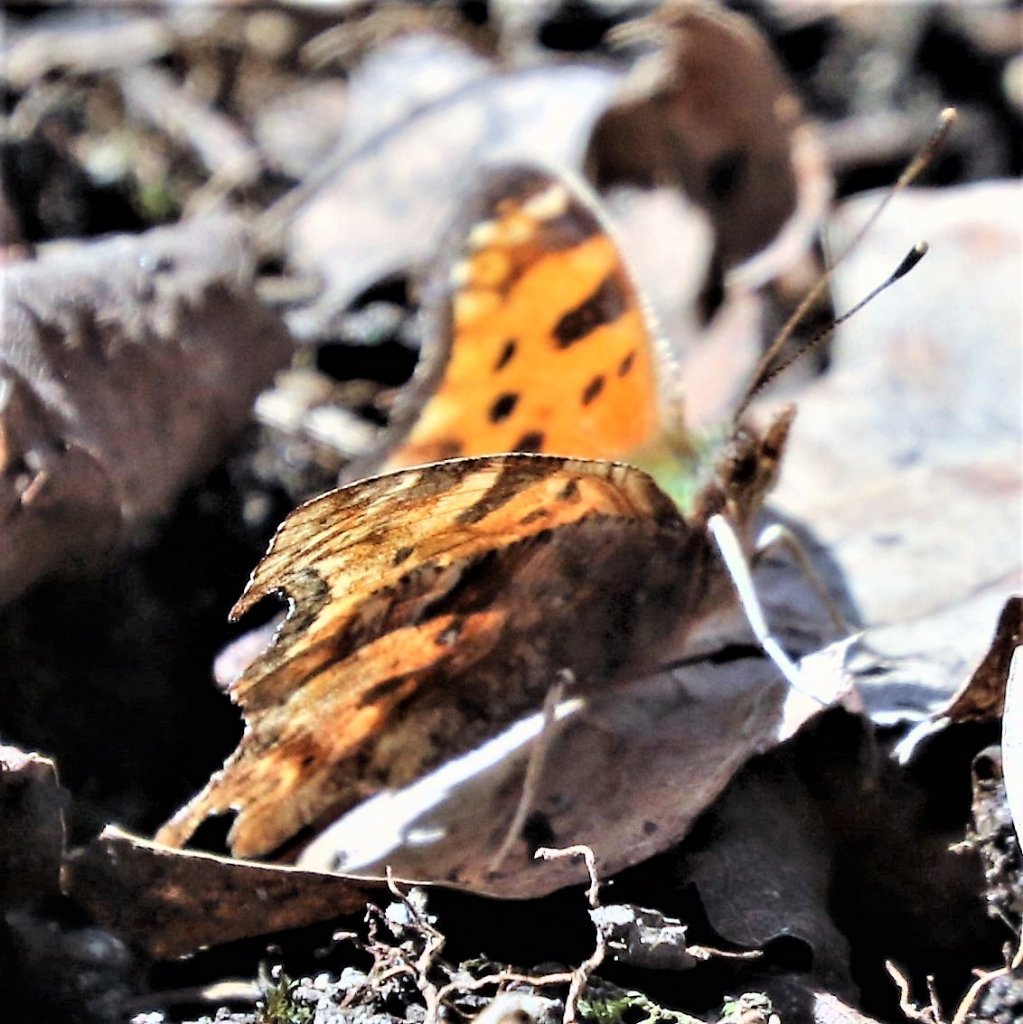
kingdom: Animalia
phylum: Arthropoda
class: Insecta
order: Lepidoptera
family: Nymphalidae
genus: Polygonia
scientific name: Polygonia comma
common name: Eastern Comma
